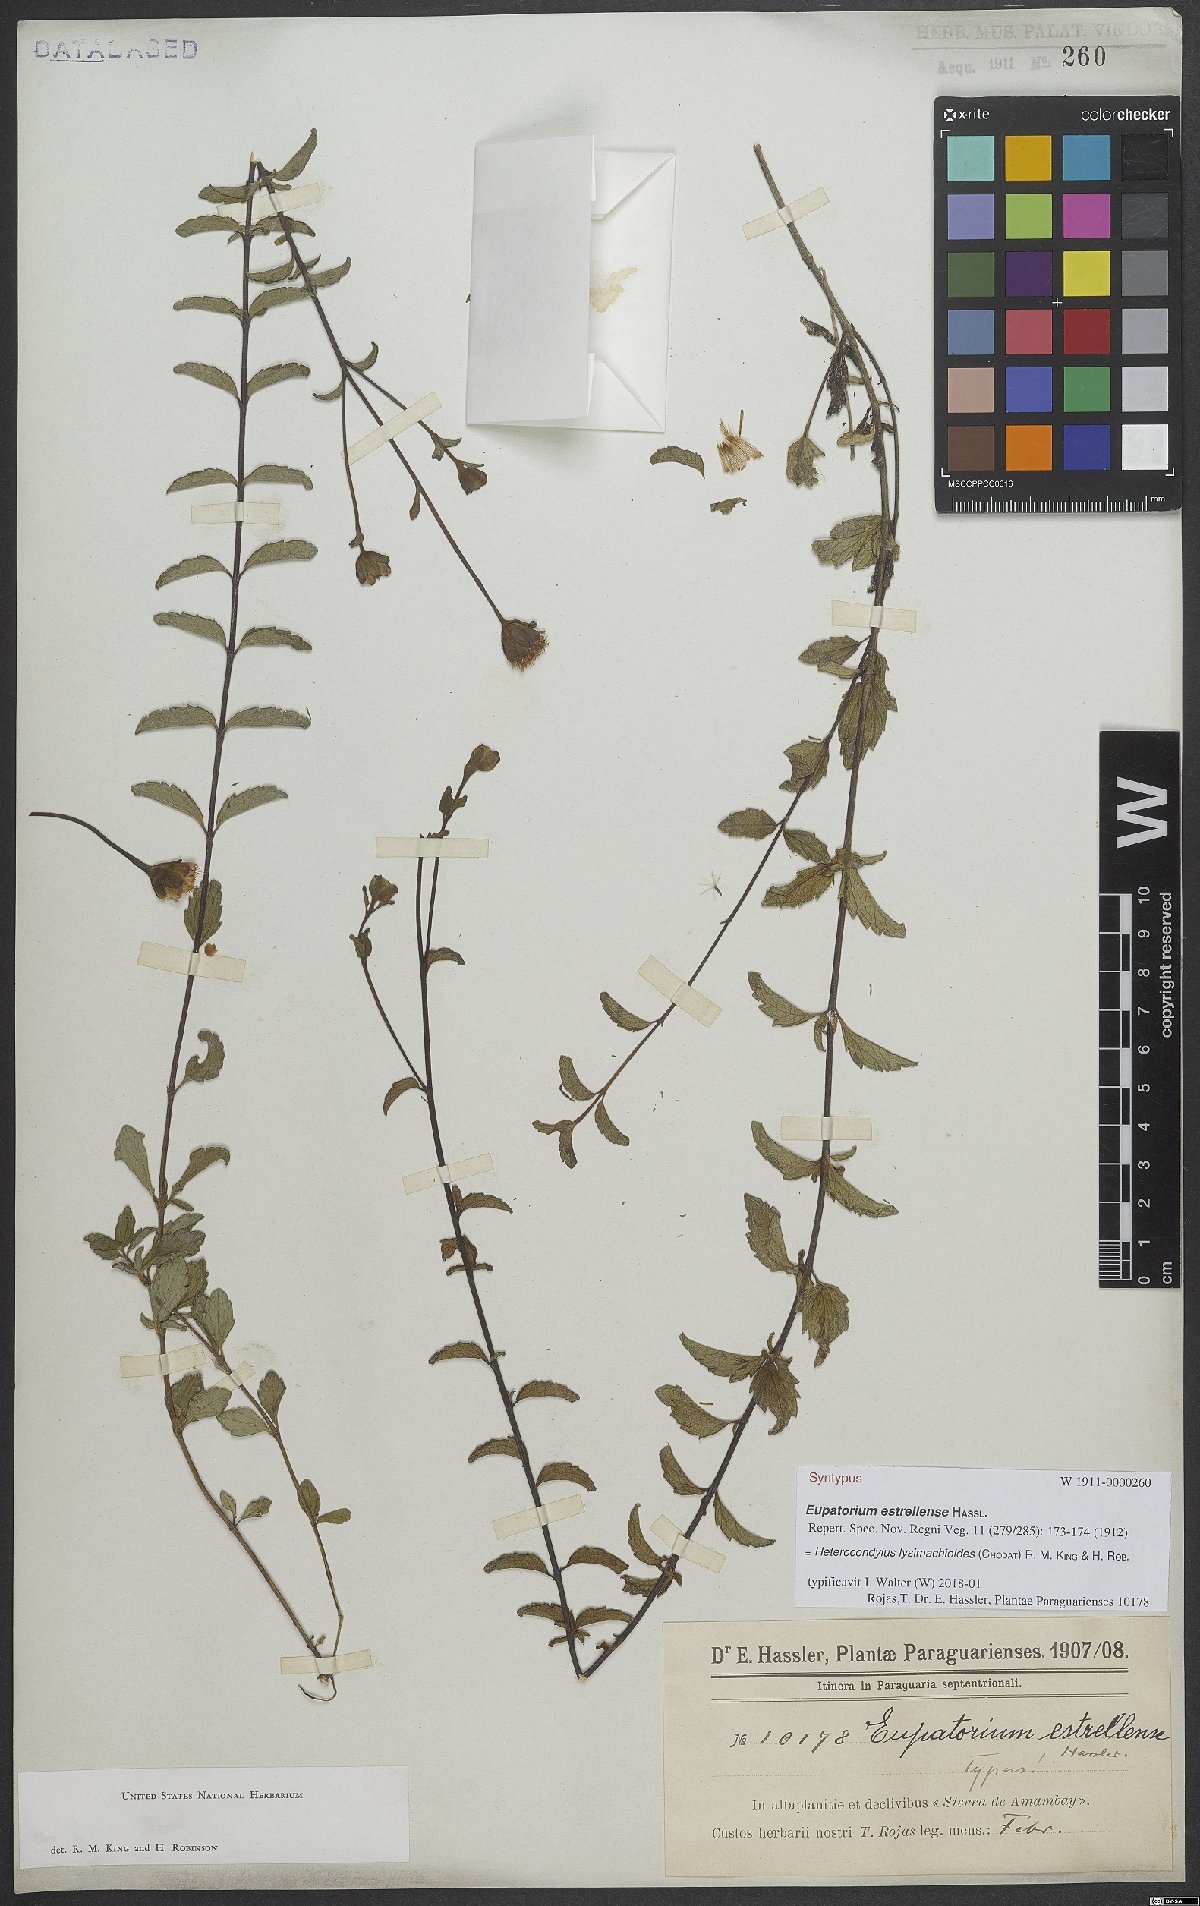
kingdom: Plantae
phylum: Tracheophyta
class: Magnoliopsida
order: Asterales
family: Asteraceae
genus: Heterocondylus
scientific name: Heterocondylus lysimachioides
